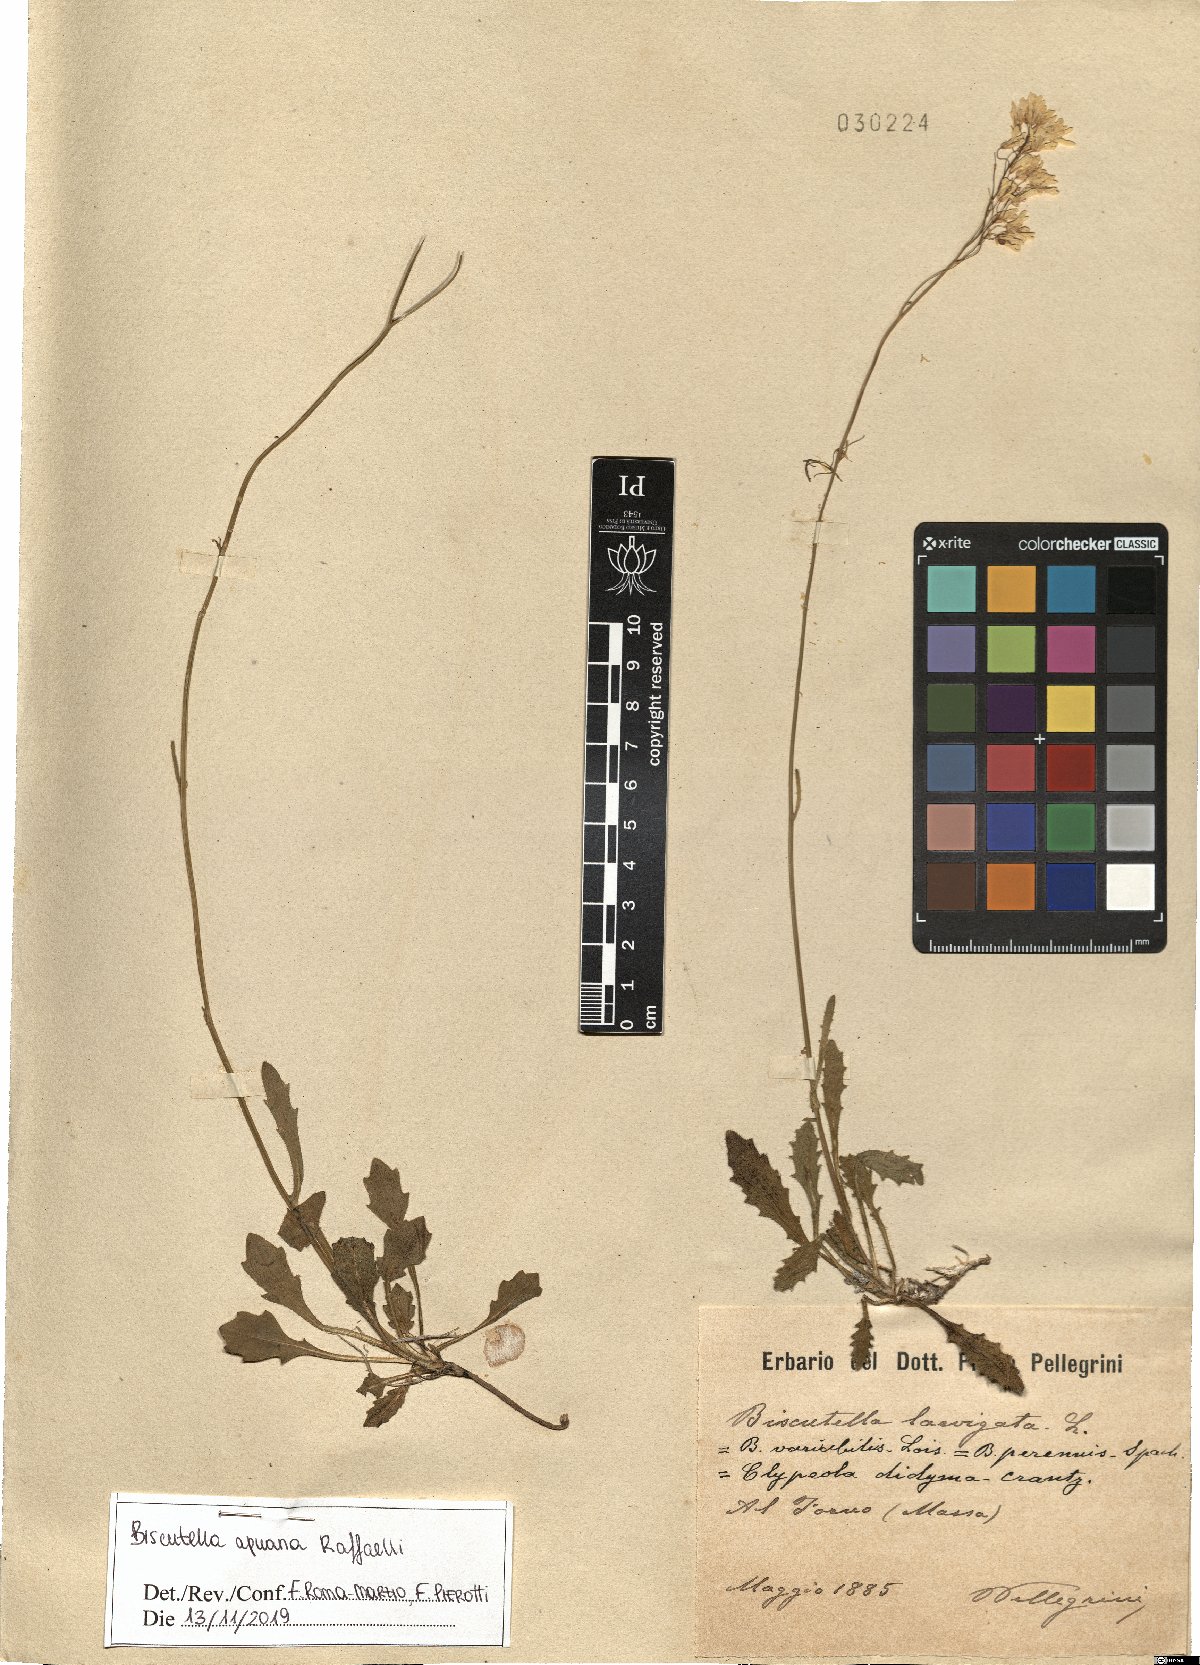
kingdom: Plantae
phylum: Tracheophyta
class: Magnoliopsida
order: Brassicales
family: Brassicaceae
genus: Biscutella
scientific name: Biscutella apuana
